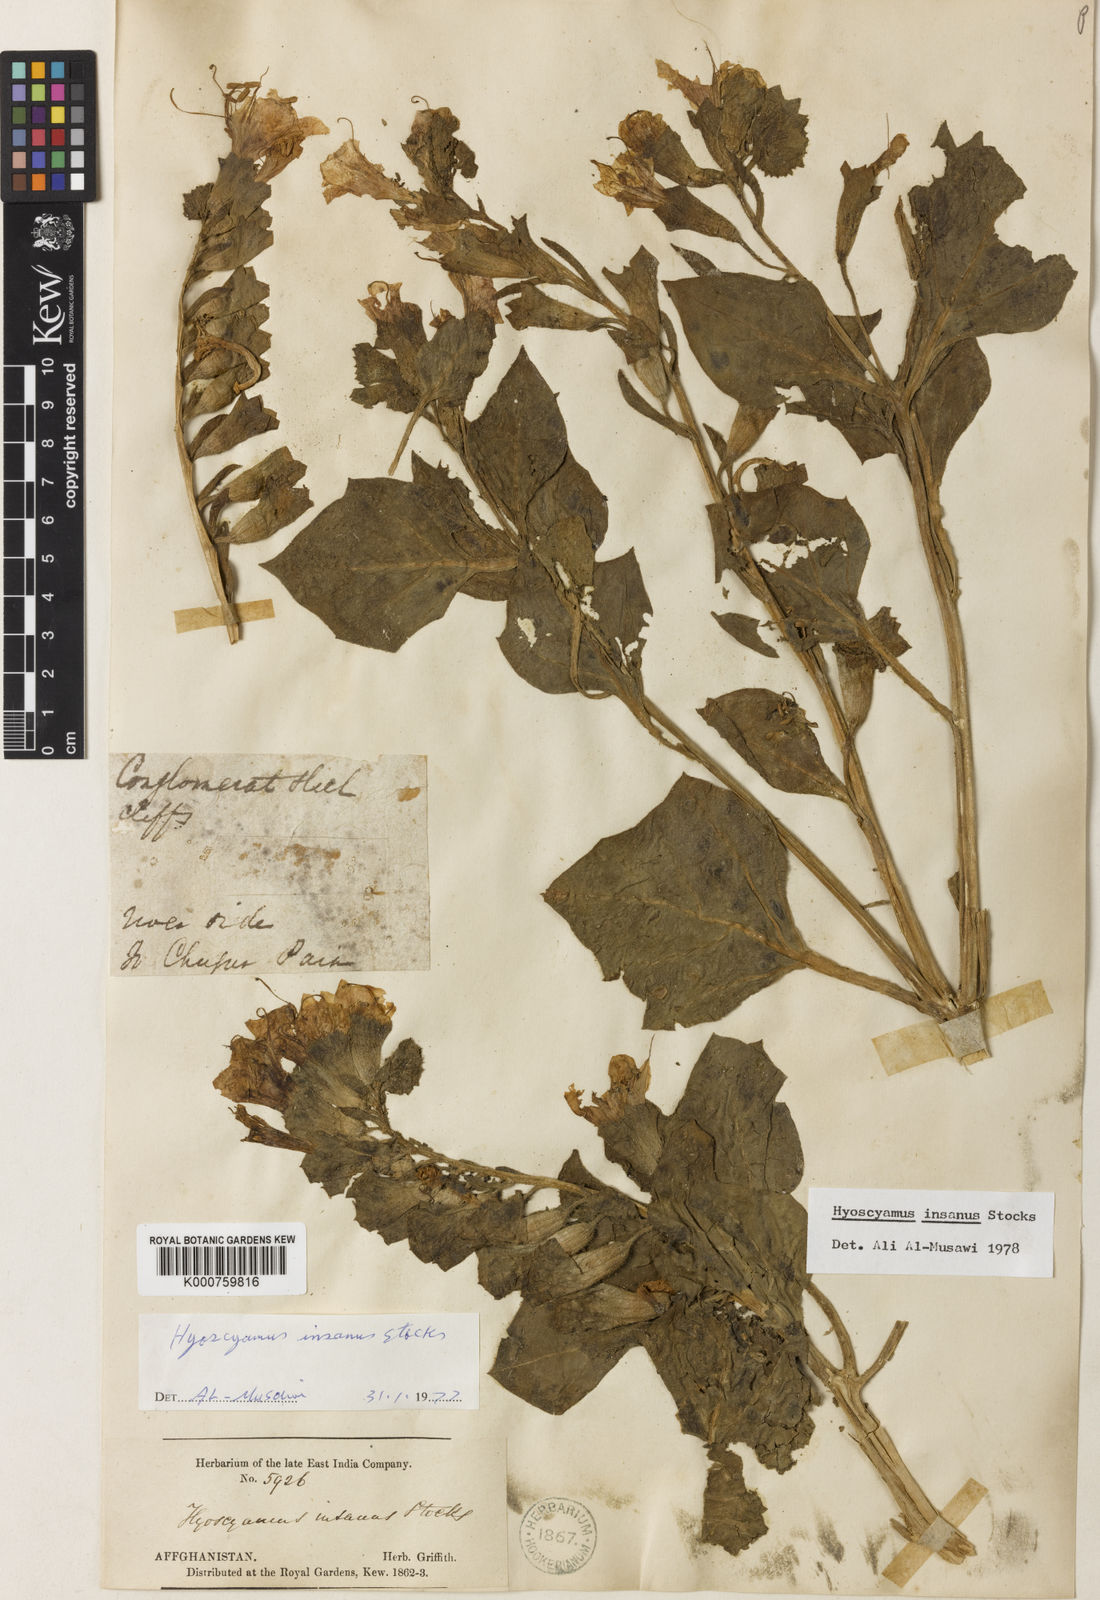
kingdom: Plantae
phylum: Tracheophyta
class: Magnoliopsida
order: Solanales
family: Solanaceae
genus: Hyoscyamus
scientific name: Hyoscyamus insanus
